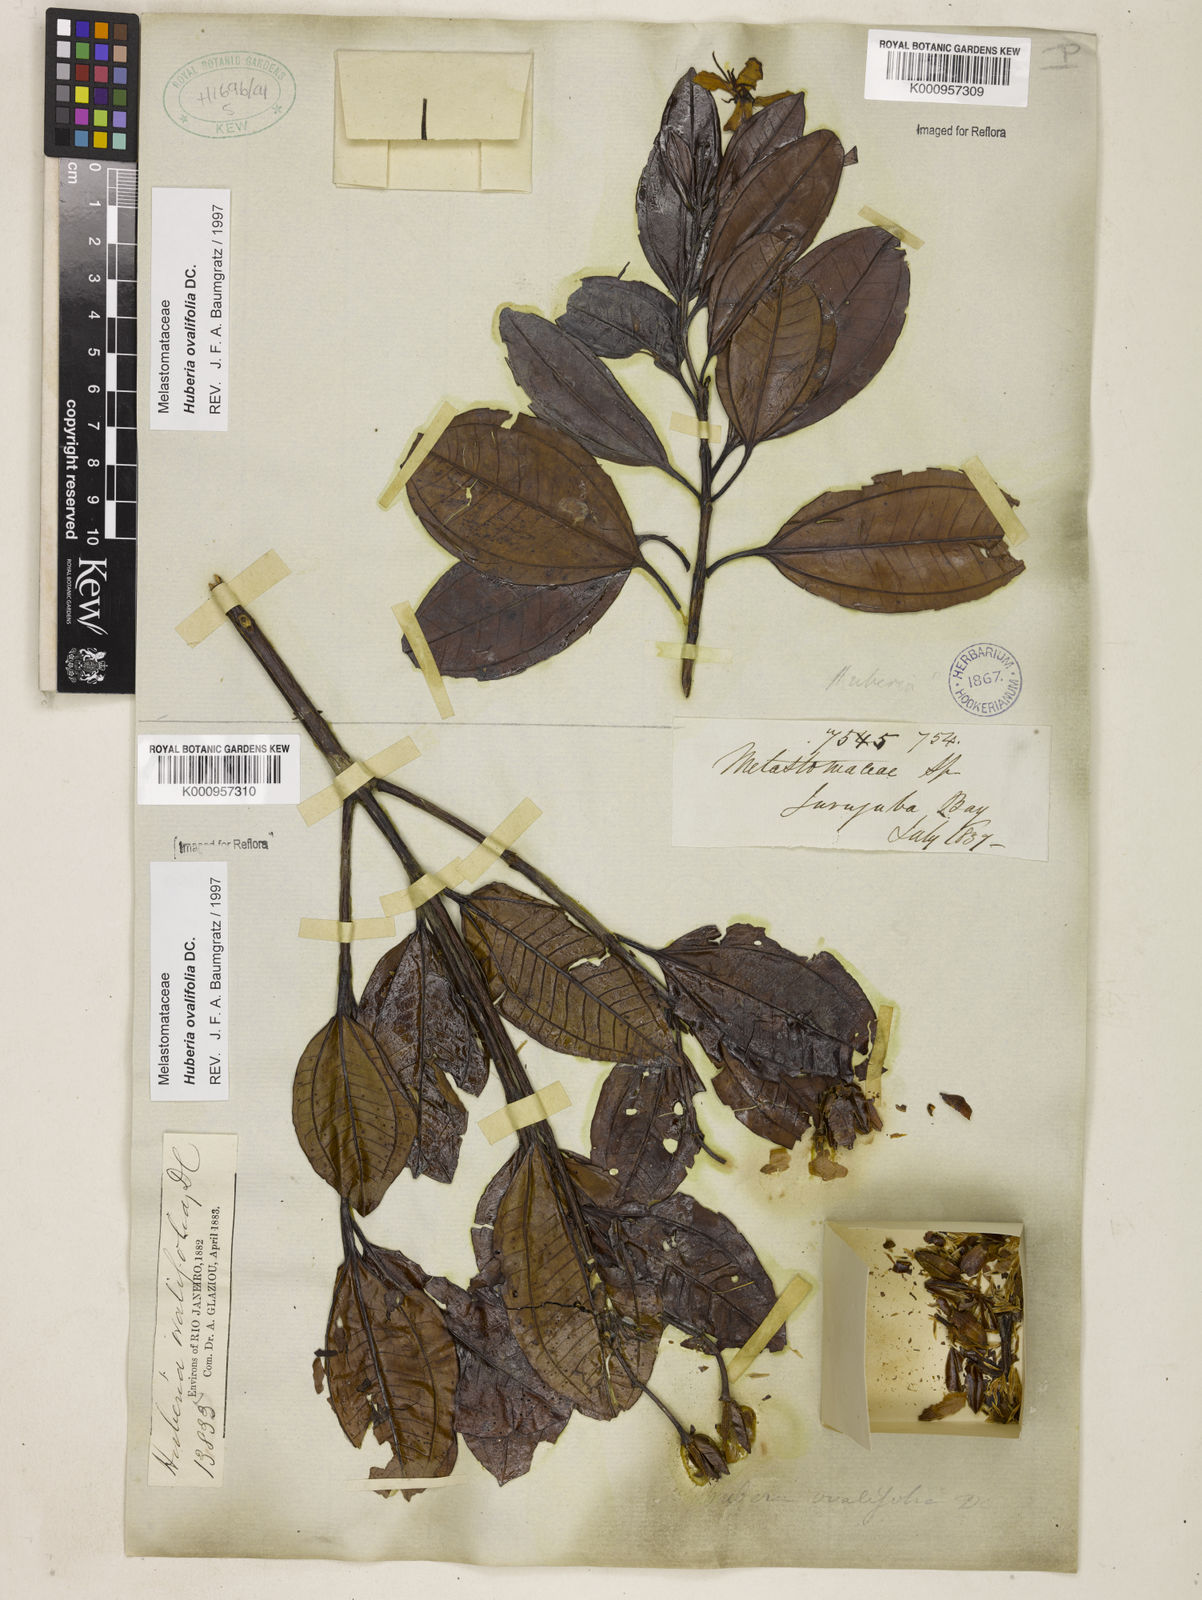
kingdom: Plantae
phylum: Tracheophyta
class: Magnoliopsida
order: Myrtales
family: Melastomataceae
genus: Huberia
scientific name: Huberia ovalifolia
